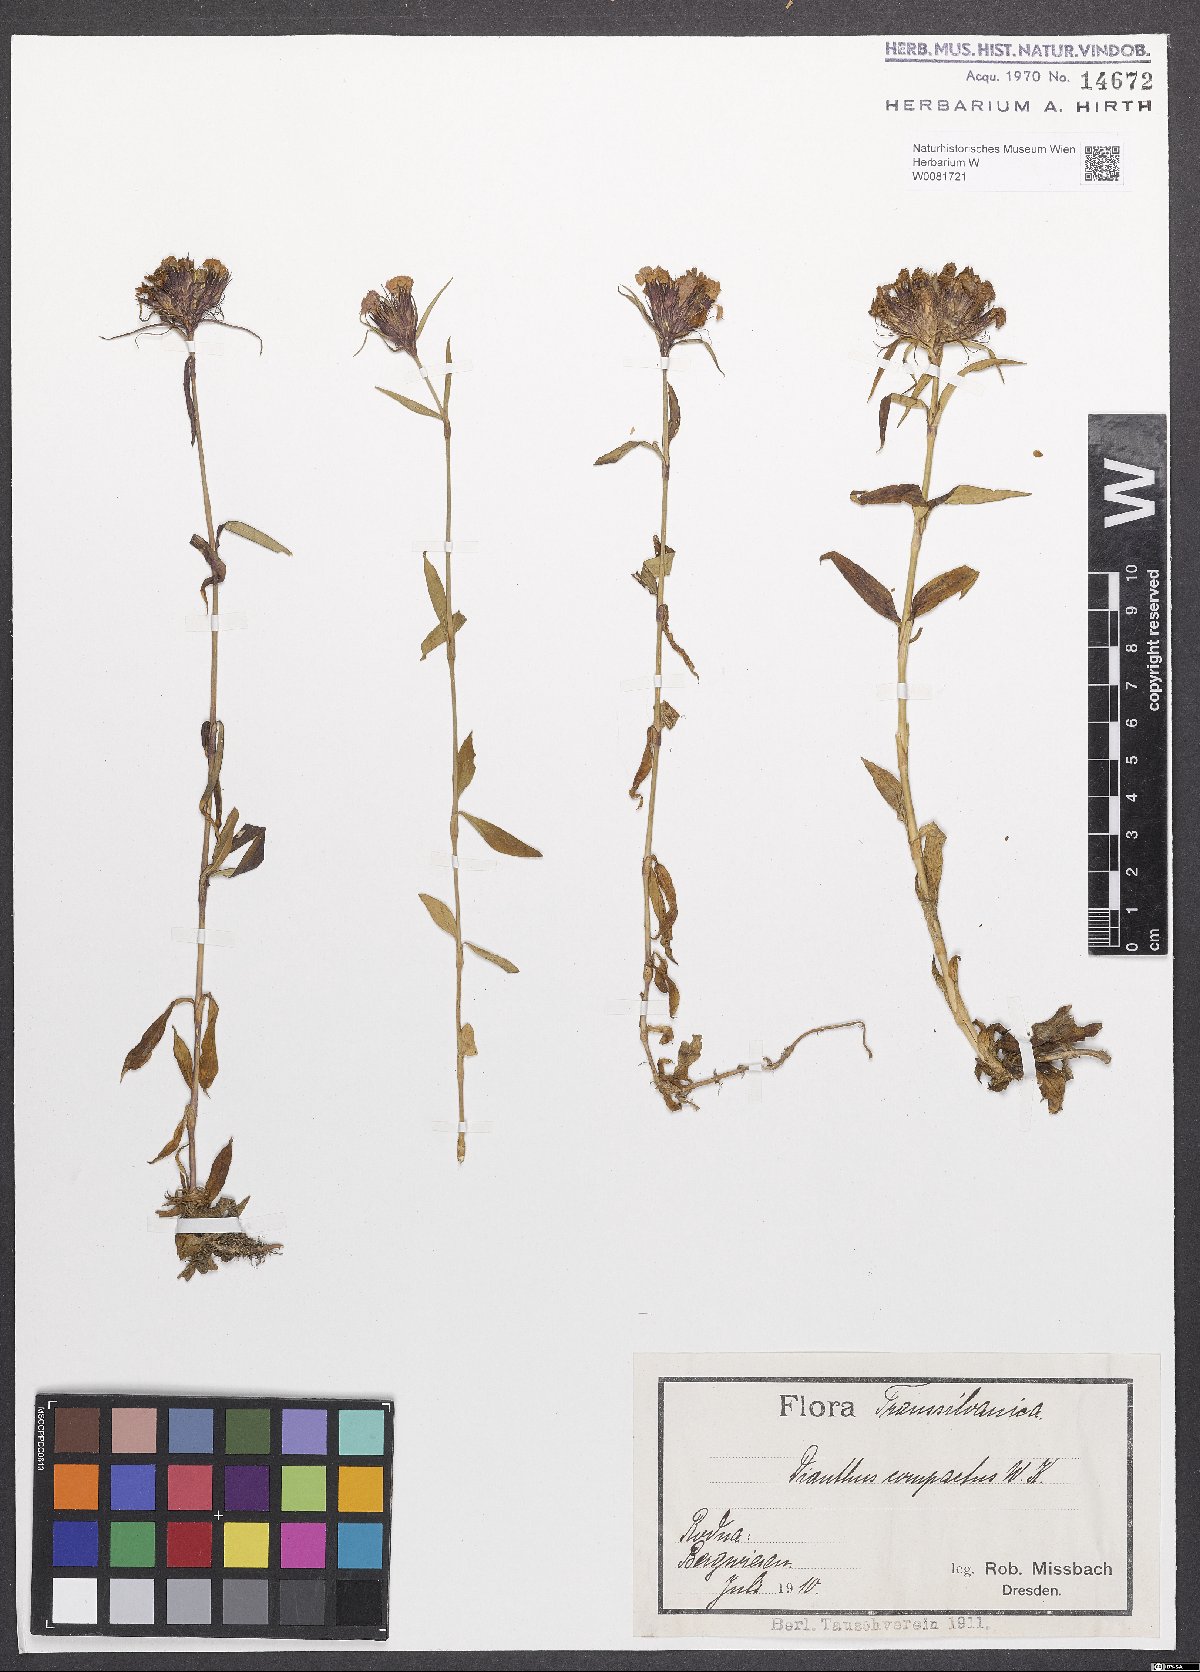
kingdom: Plantae
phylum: Tracheophyta
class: Magnoliopsida
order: Caryophyllales
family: Caryophyllaceae
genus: Dianthus
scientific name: Dianthus barbatus
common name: Sweet-william
